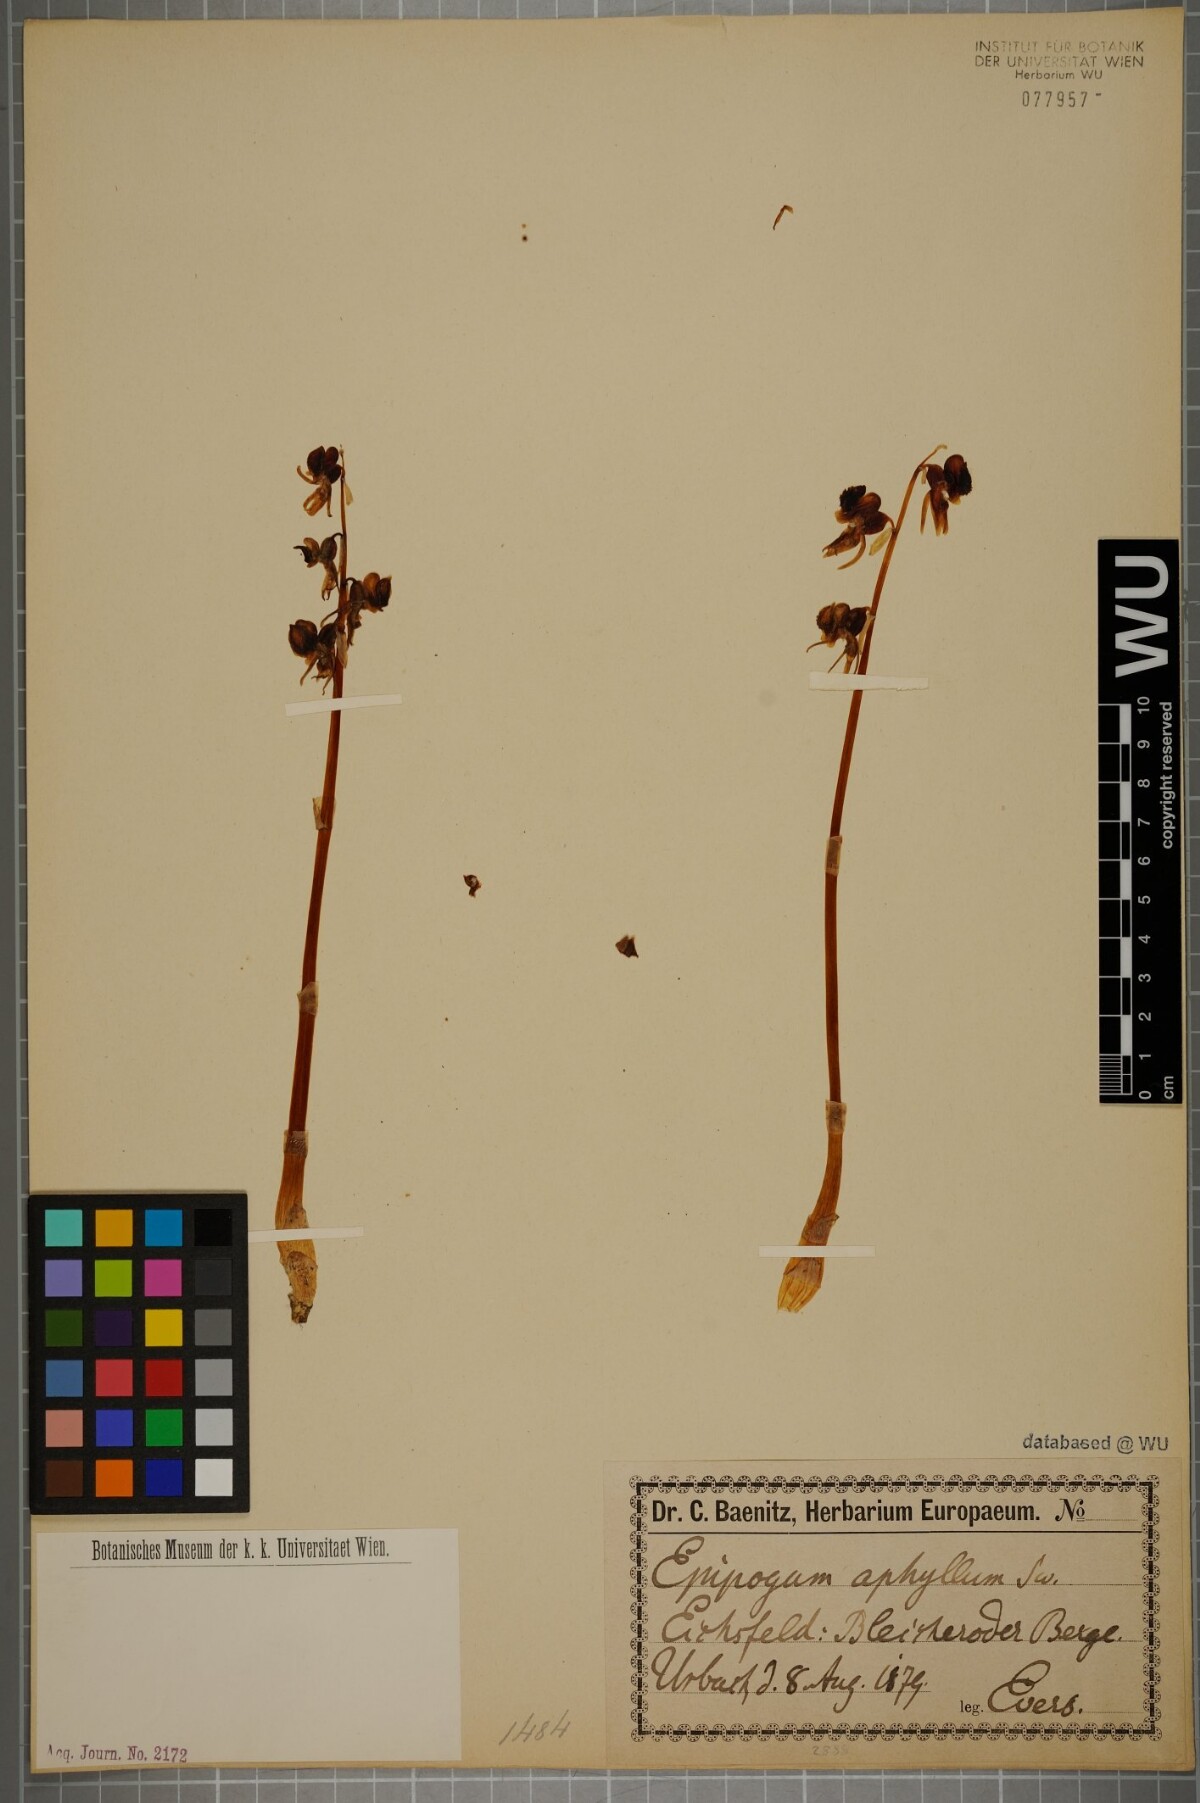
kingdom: Plantae
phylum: Tracheophyta
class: Liliopsida
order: Asparagales
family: Orchidaceae
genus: Epipogium
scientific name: Epipogium aphyllum
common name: Ghost orchid
